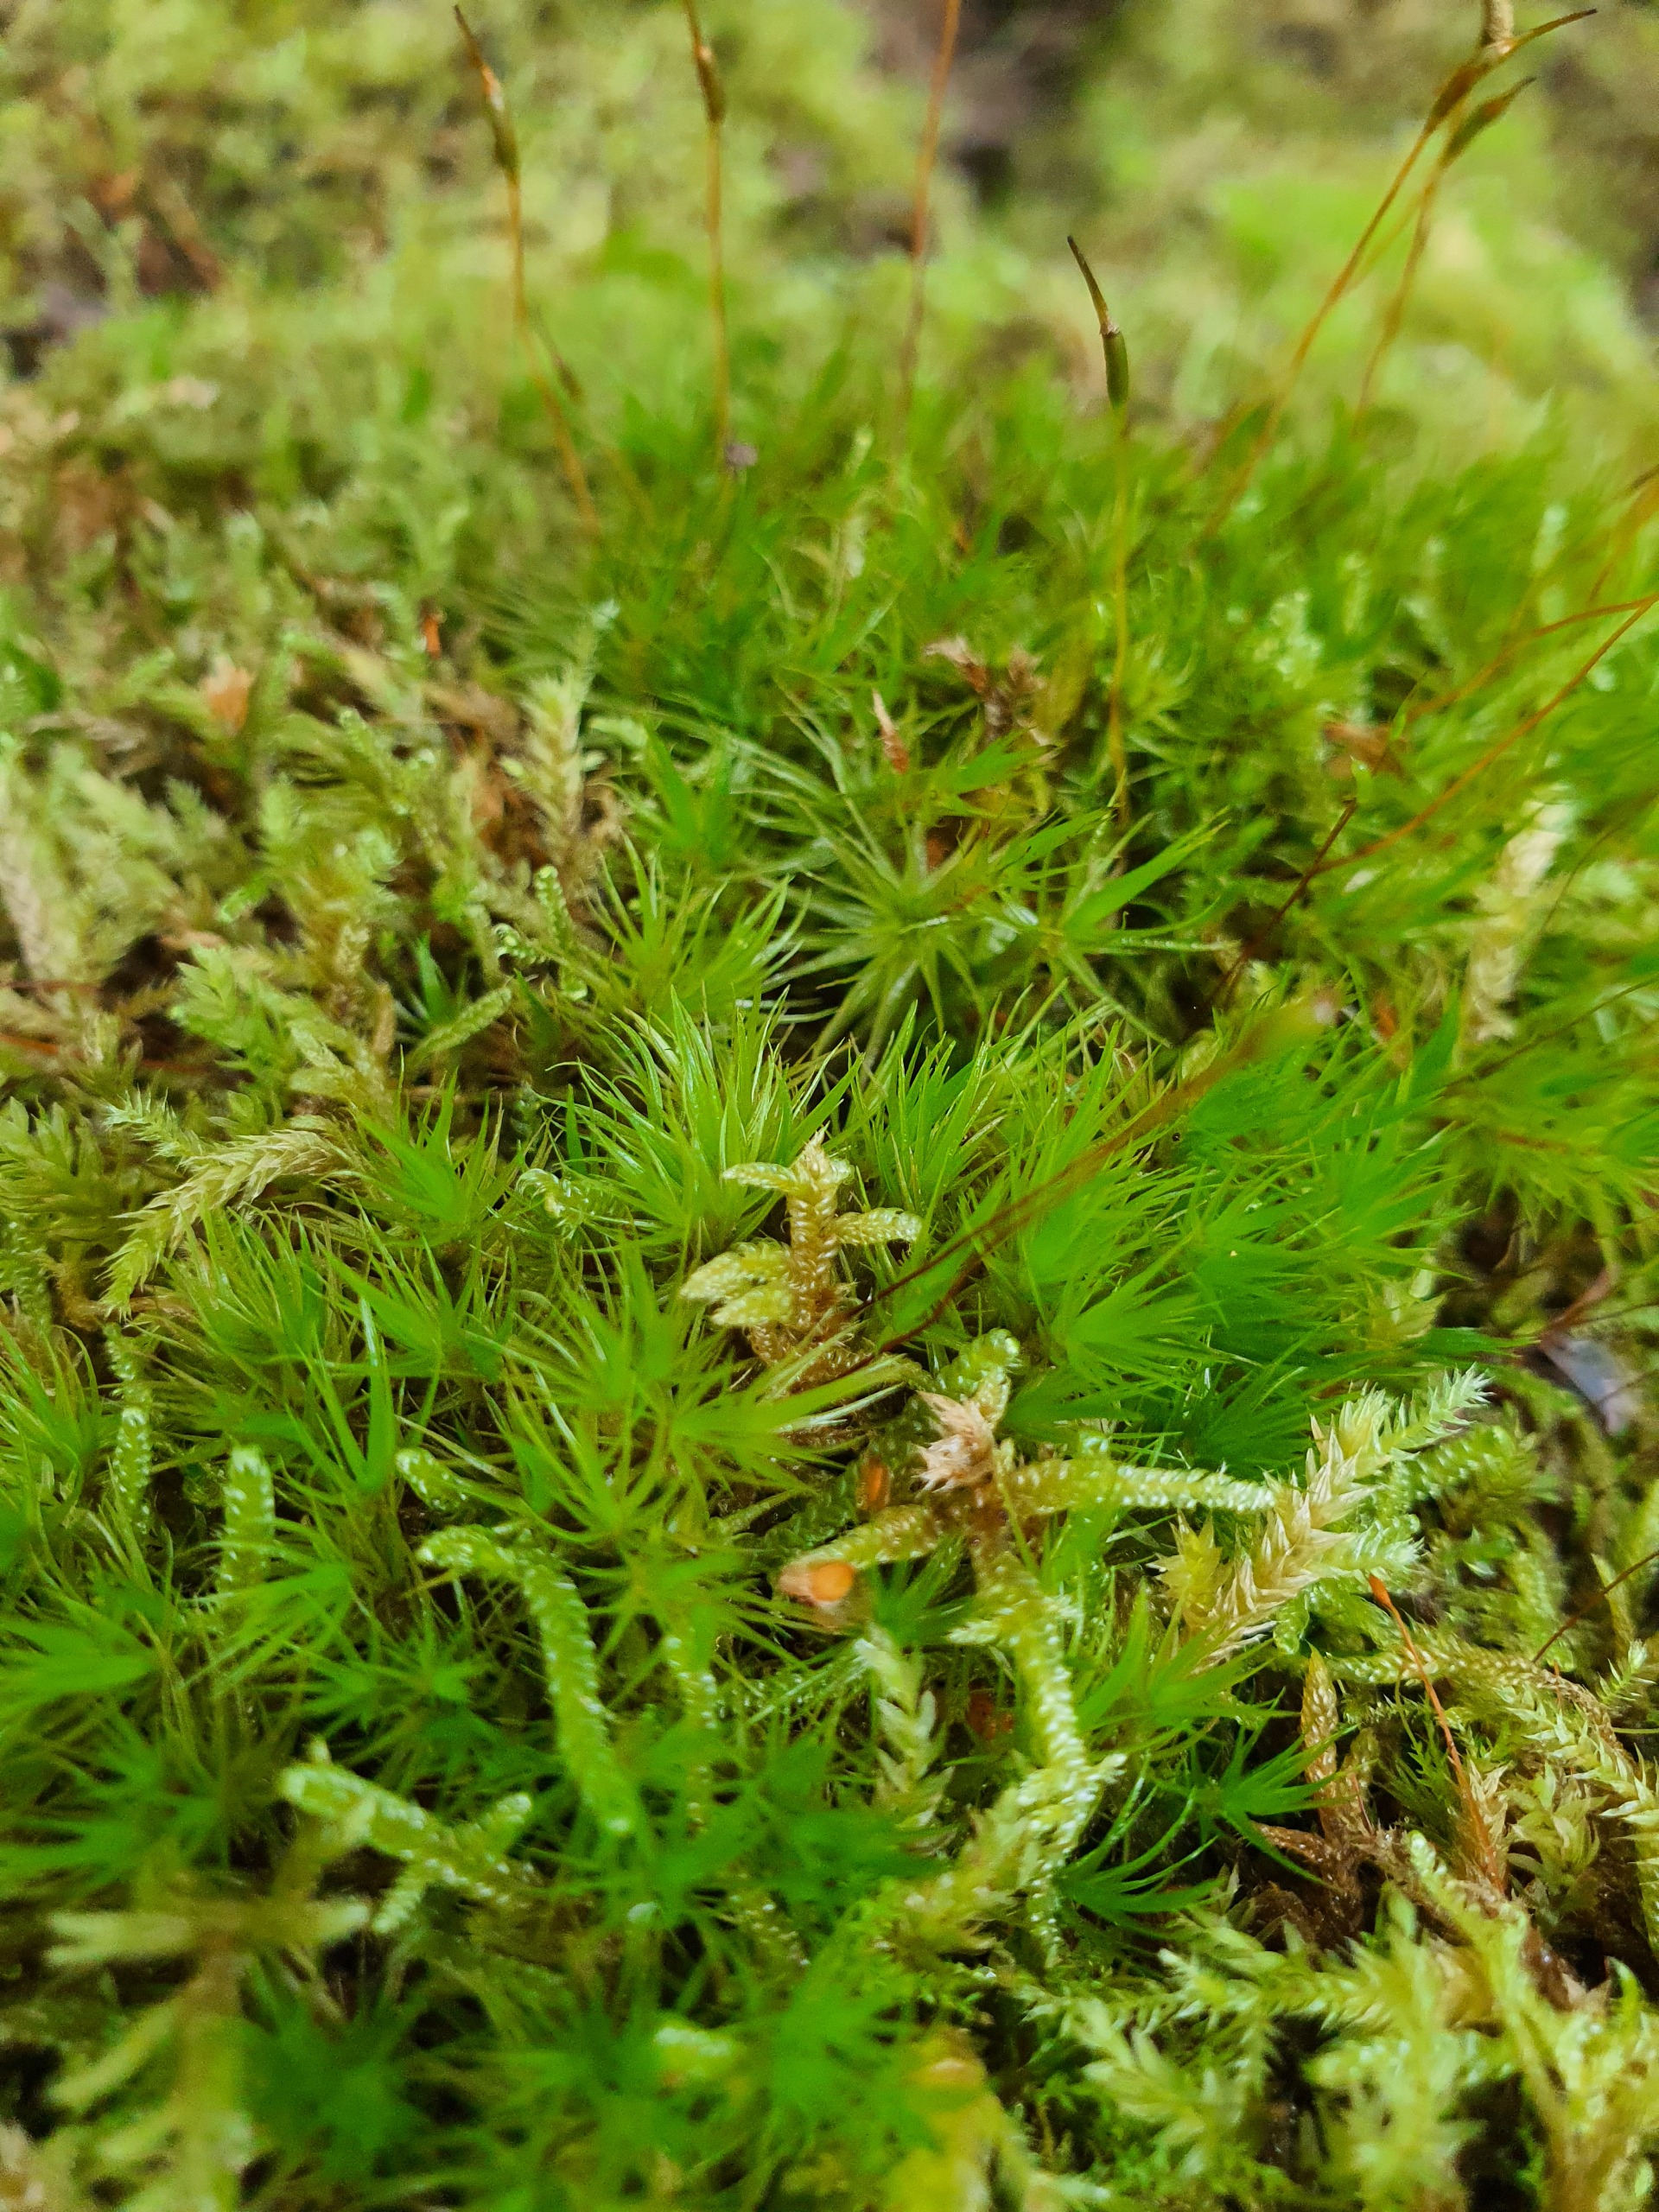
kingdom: Plantae
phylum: Bryophyta
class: Bryopsida
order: Dicranales
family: Dicranaceae
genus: Dicranum
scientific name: Dicranum scoparium
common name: Almindelig kløvtand
